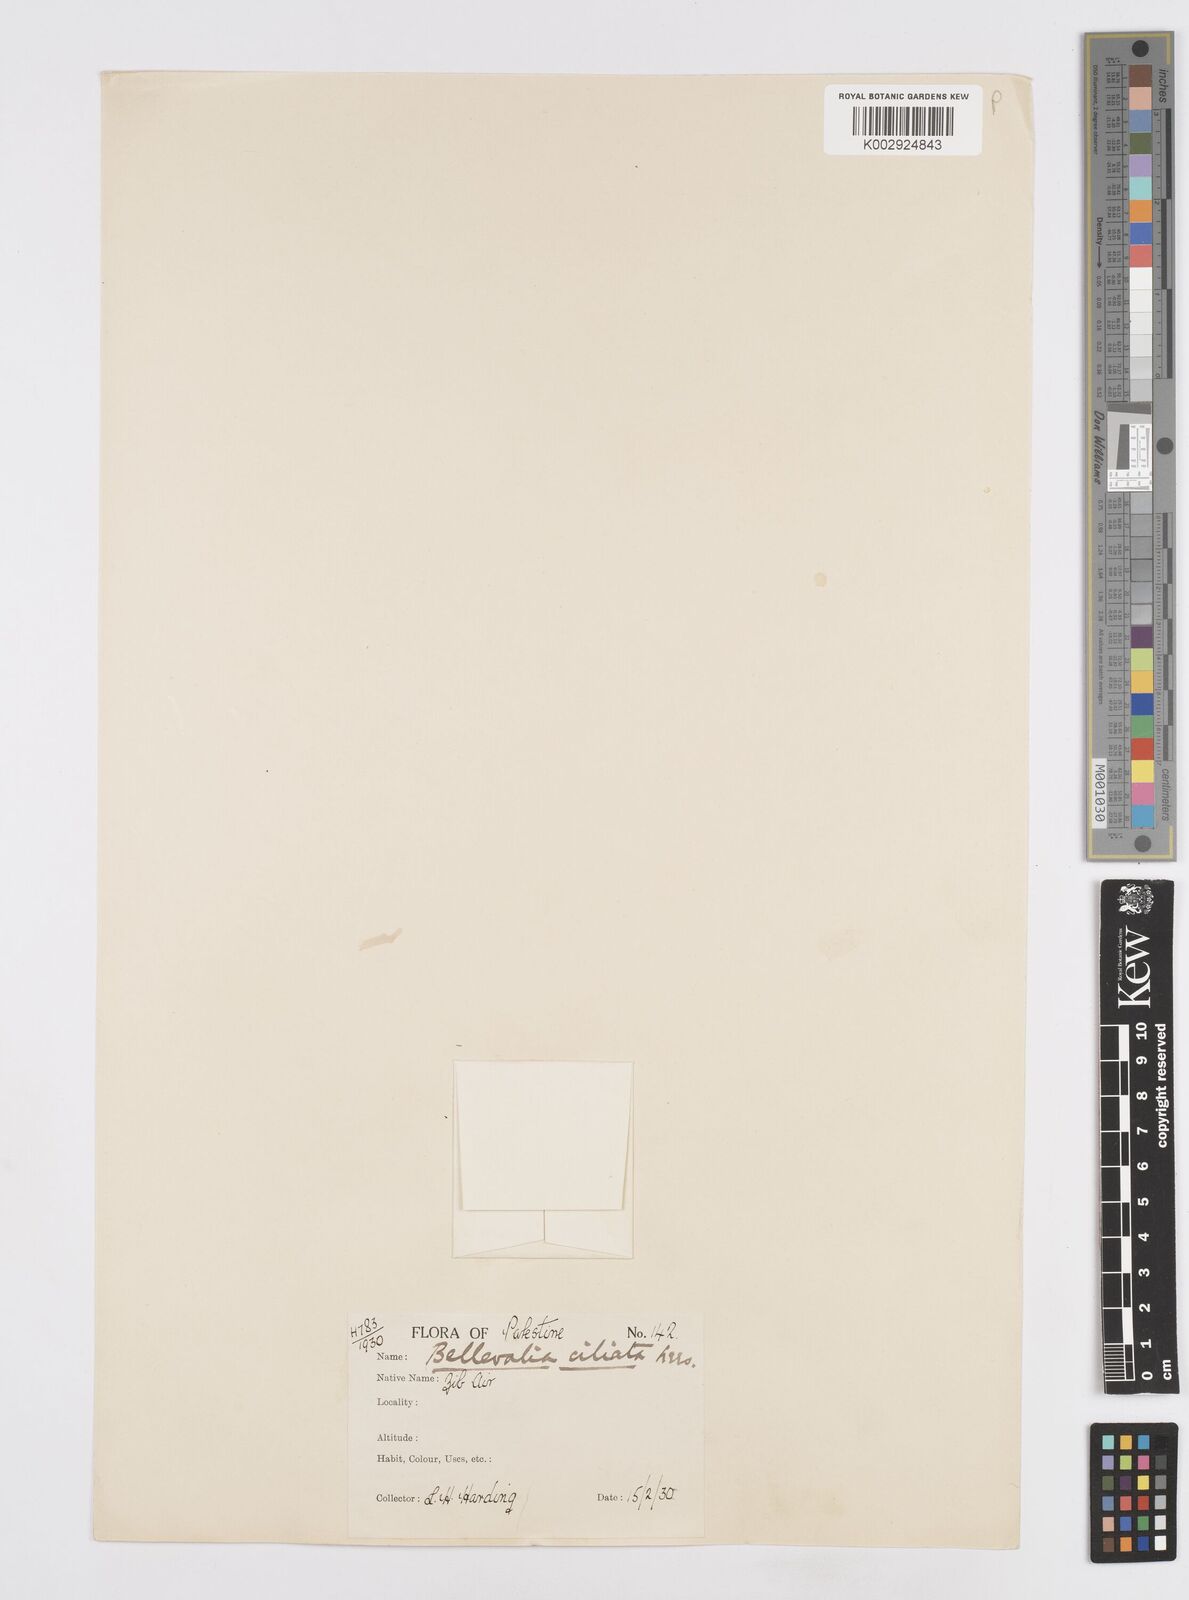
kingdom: Plantae
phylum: Tracheophyta
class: Liliopsida
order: Asparagales
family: Asparagaceae
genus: Bellevalia
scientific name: Bellevalia
